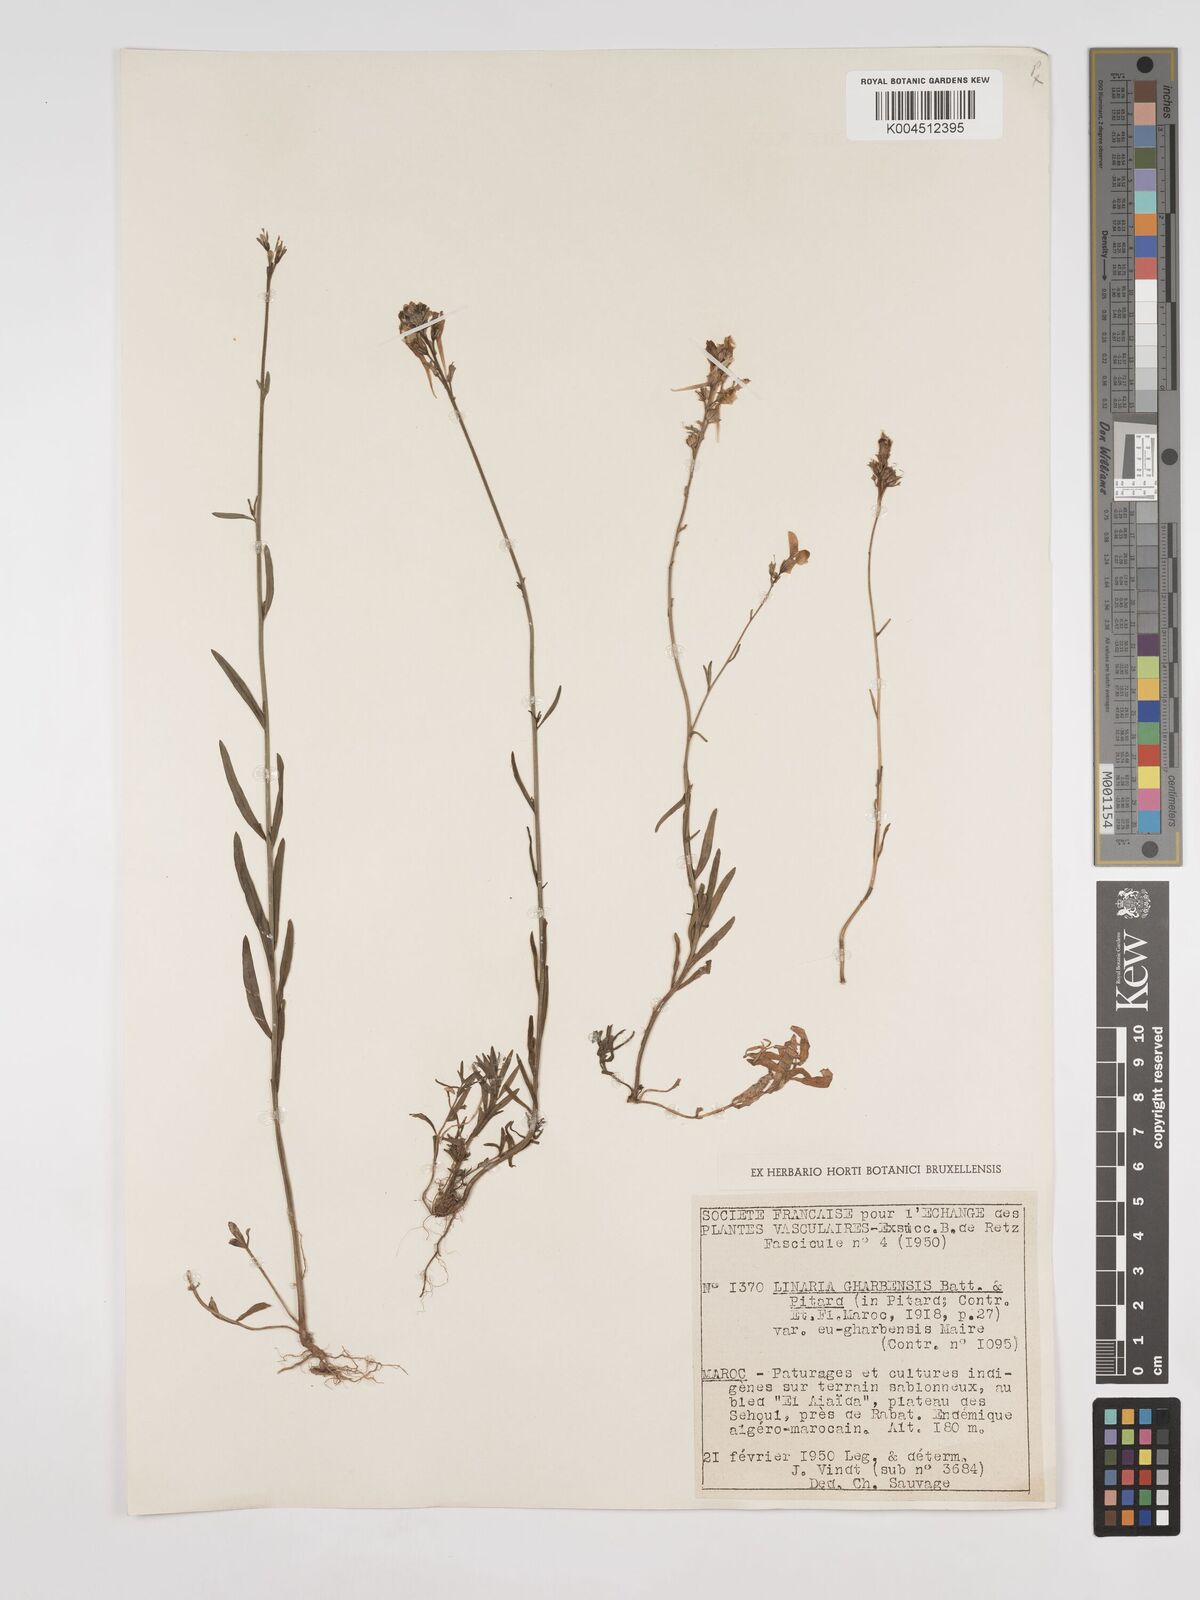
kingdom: Plantae
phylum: Tracheophyta
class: Magnoliopsida
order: Lamiales
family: Plantaginaceae
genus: Linaria
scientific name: Linaria gharbensis
